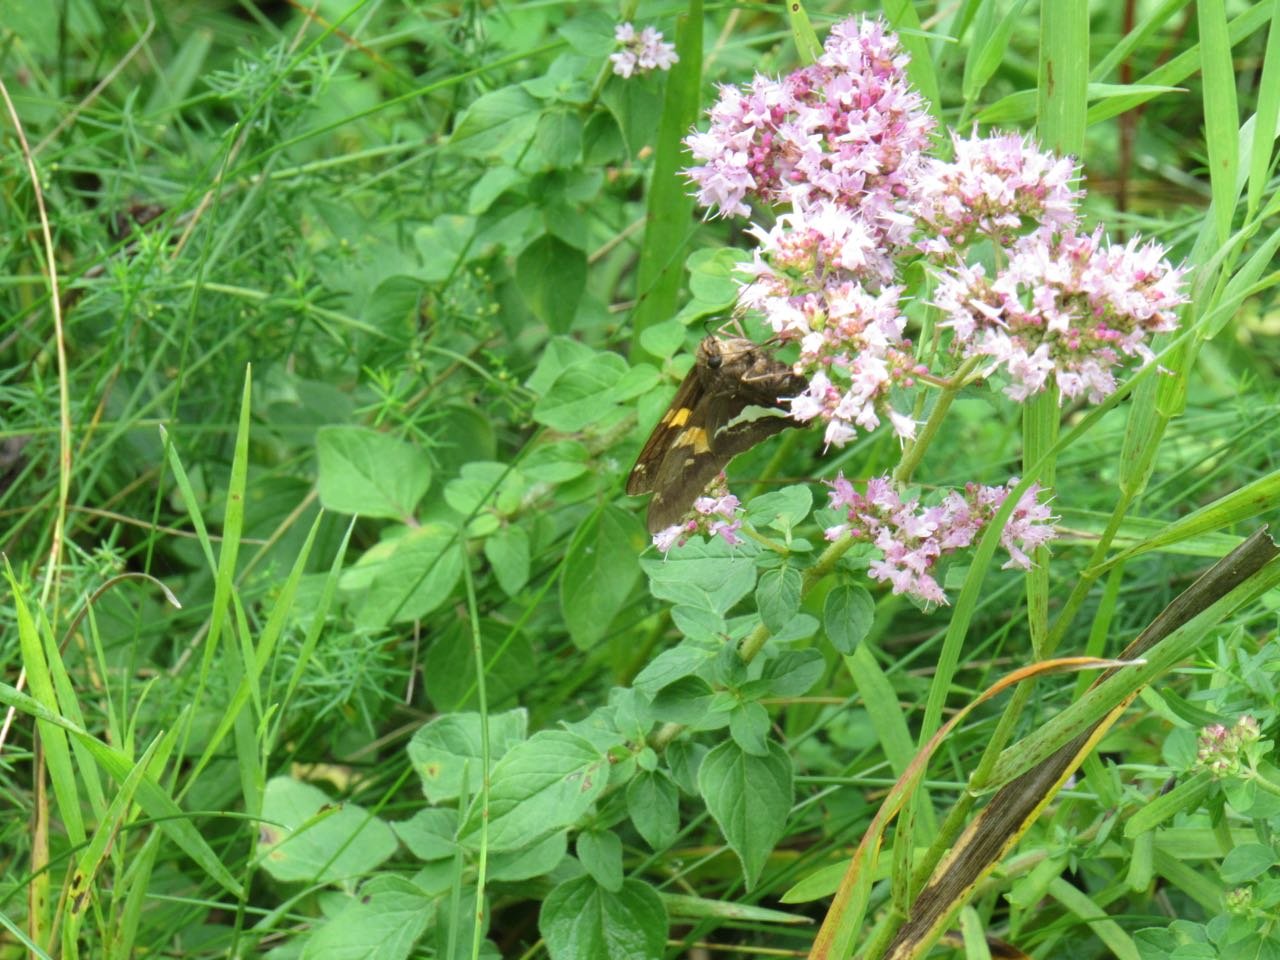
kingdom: Animalia
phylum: Arthropoda
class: Insecta
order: Lepidoptera
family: Hesperiidae
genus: Epargyreus
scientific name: Epargyreus clarus
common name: Silver-spotted Skipper
